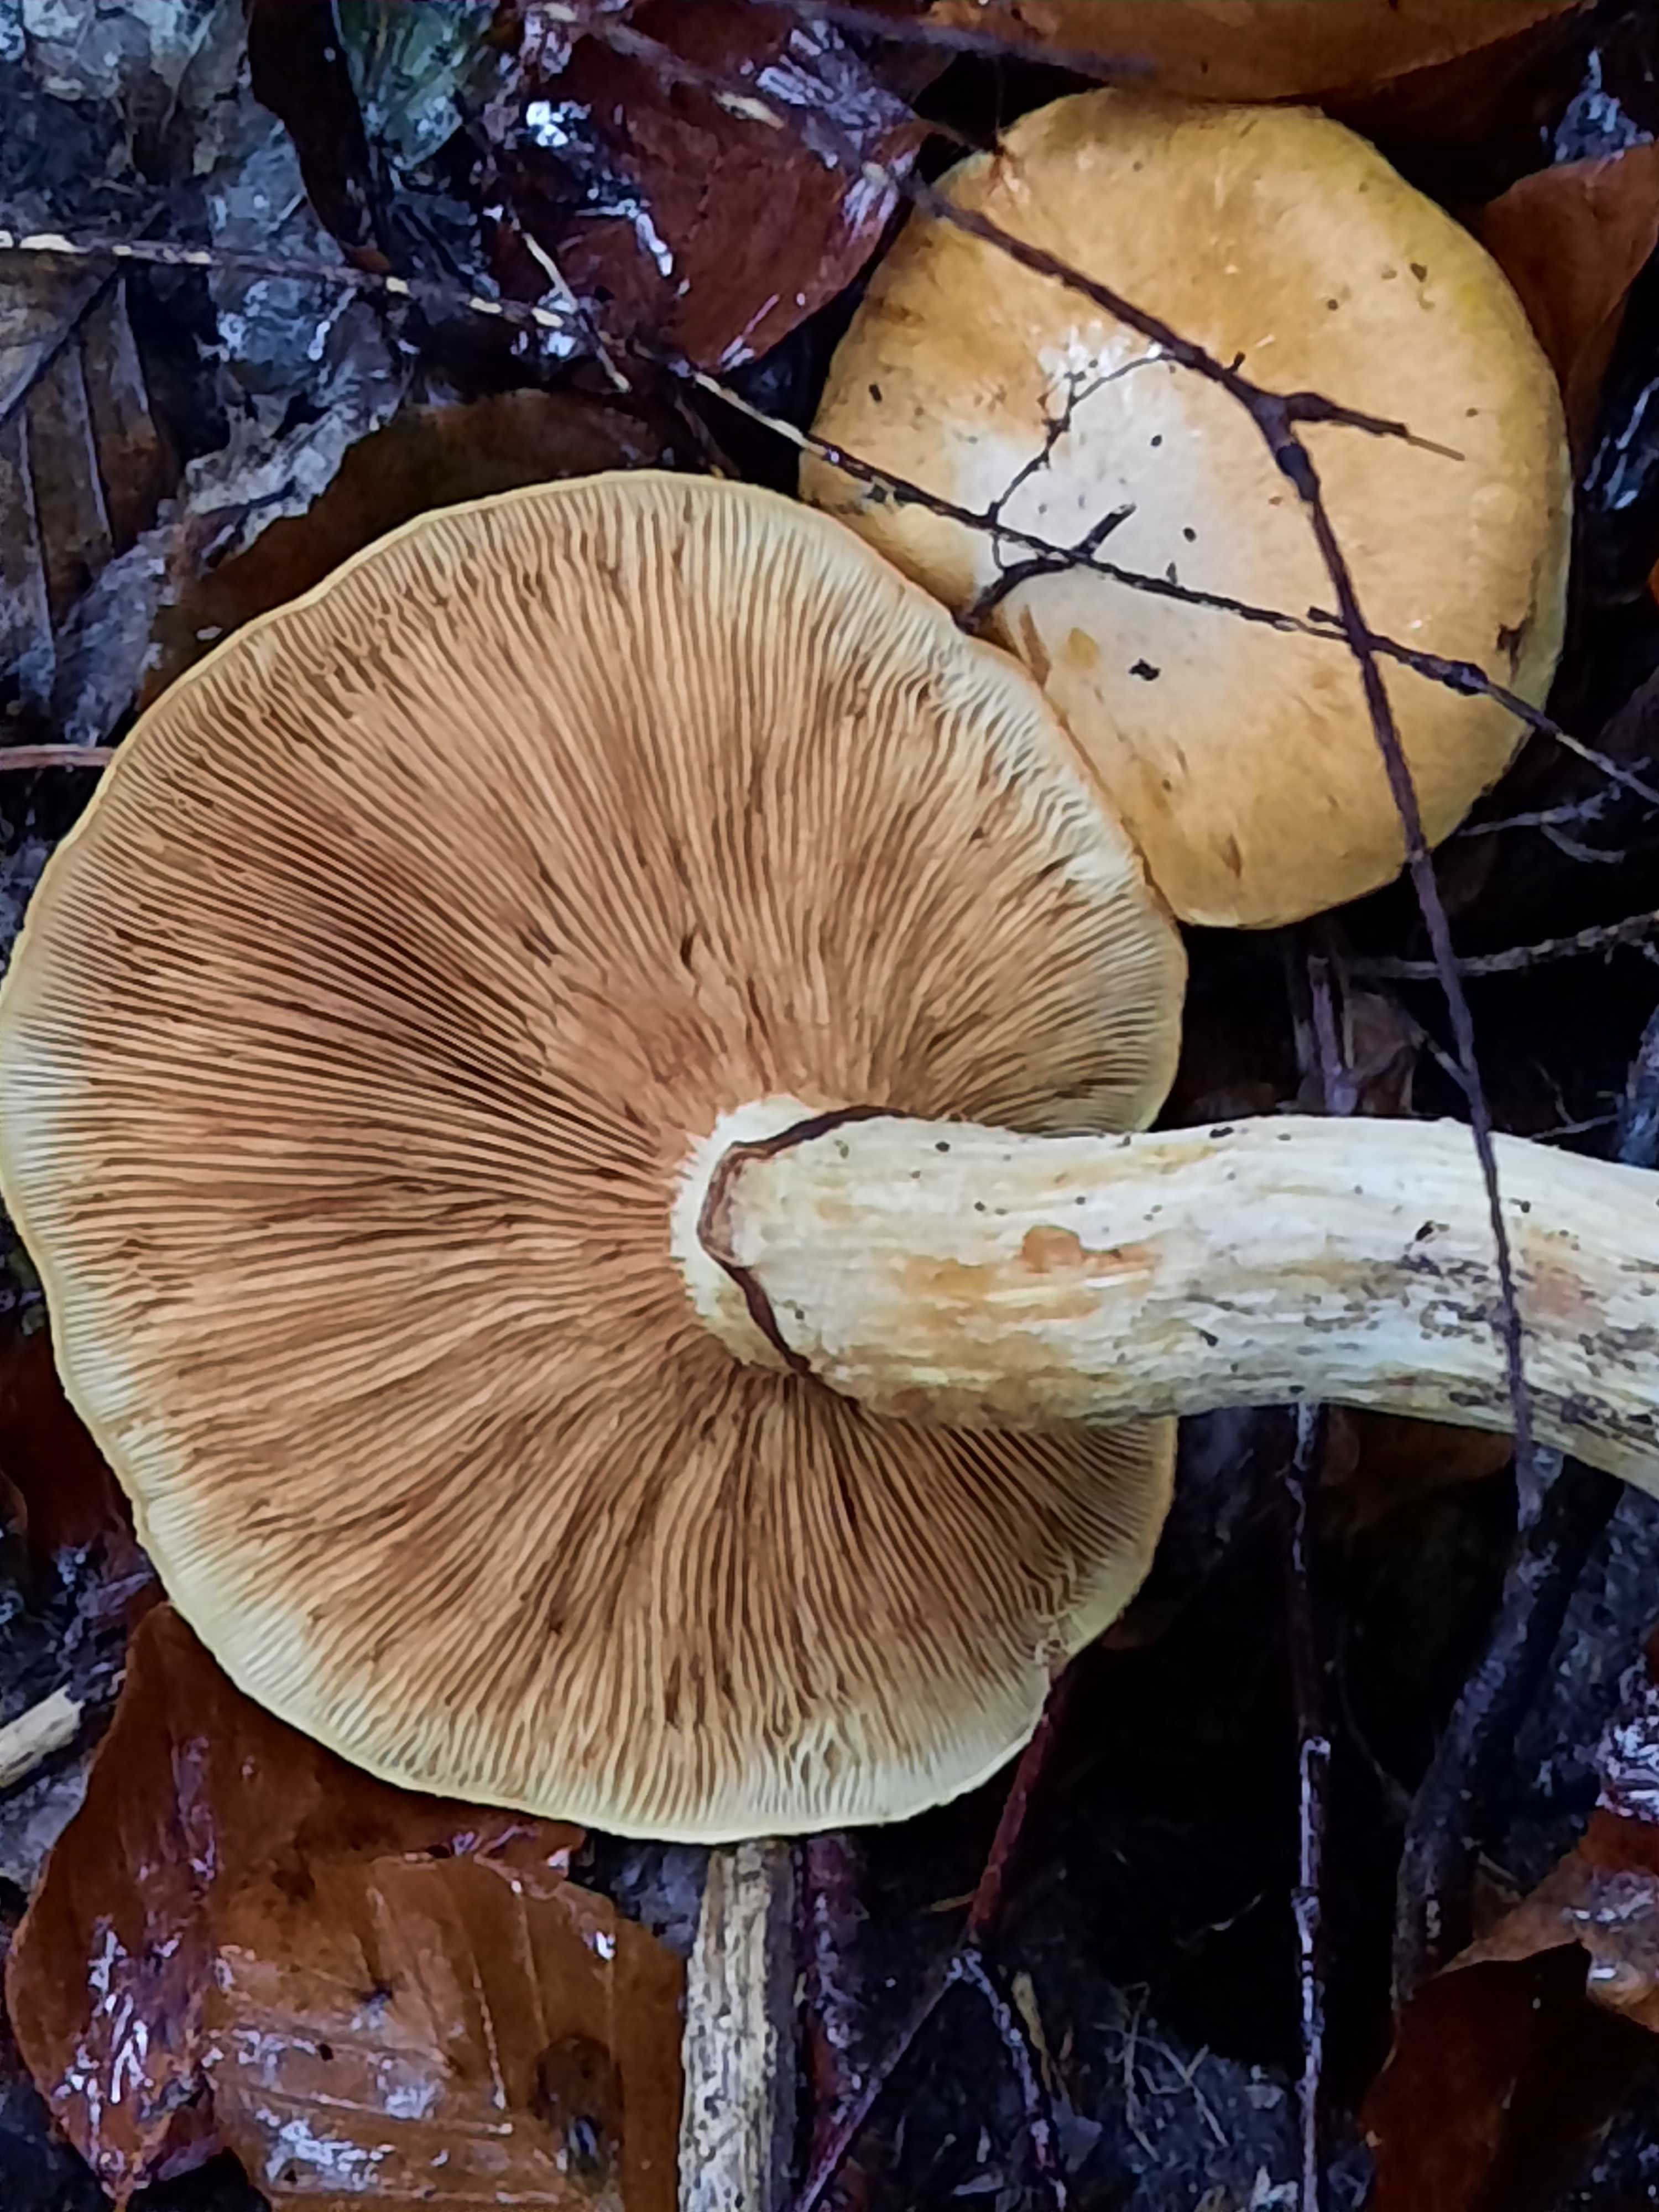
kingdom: Fungi
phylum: Basidiomycota
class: Agaricomycetes
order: Agaricales
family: Hymenogastraceae
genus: Gymnopilus
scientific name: Gymnopilus spectabilis
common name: fibret flammehat
